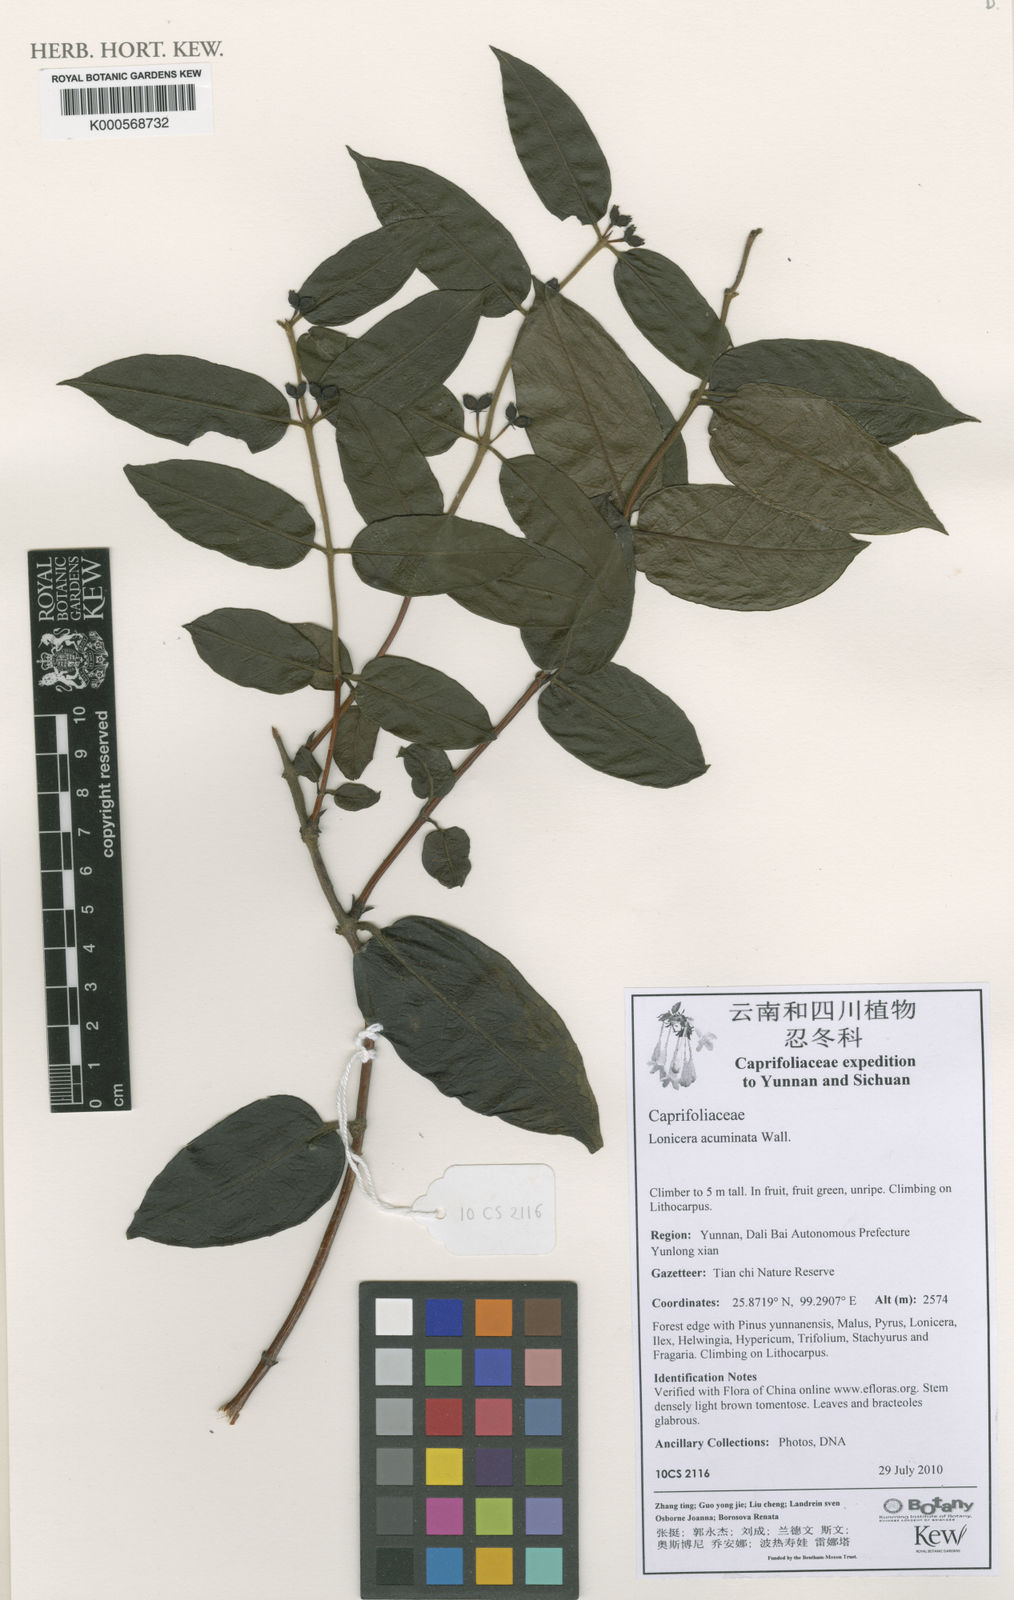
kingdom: Plantae
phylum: Tracheophyta
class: Magnoliopsida
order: Dipsacales
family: Caprifoliaceae
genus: Lonicera
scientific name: Lonicera acuminata
